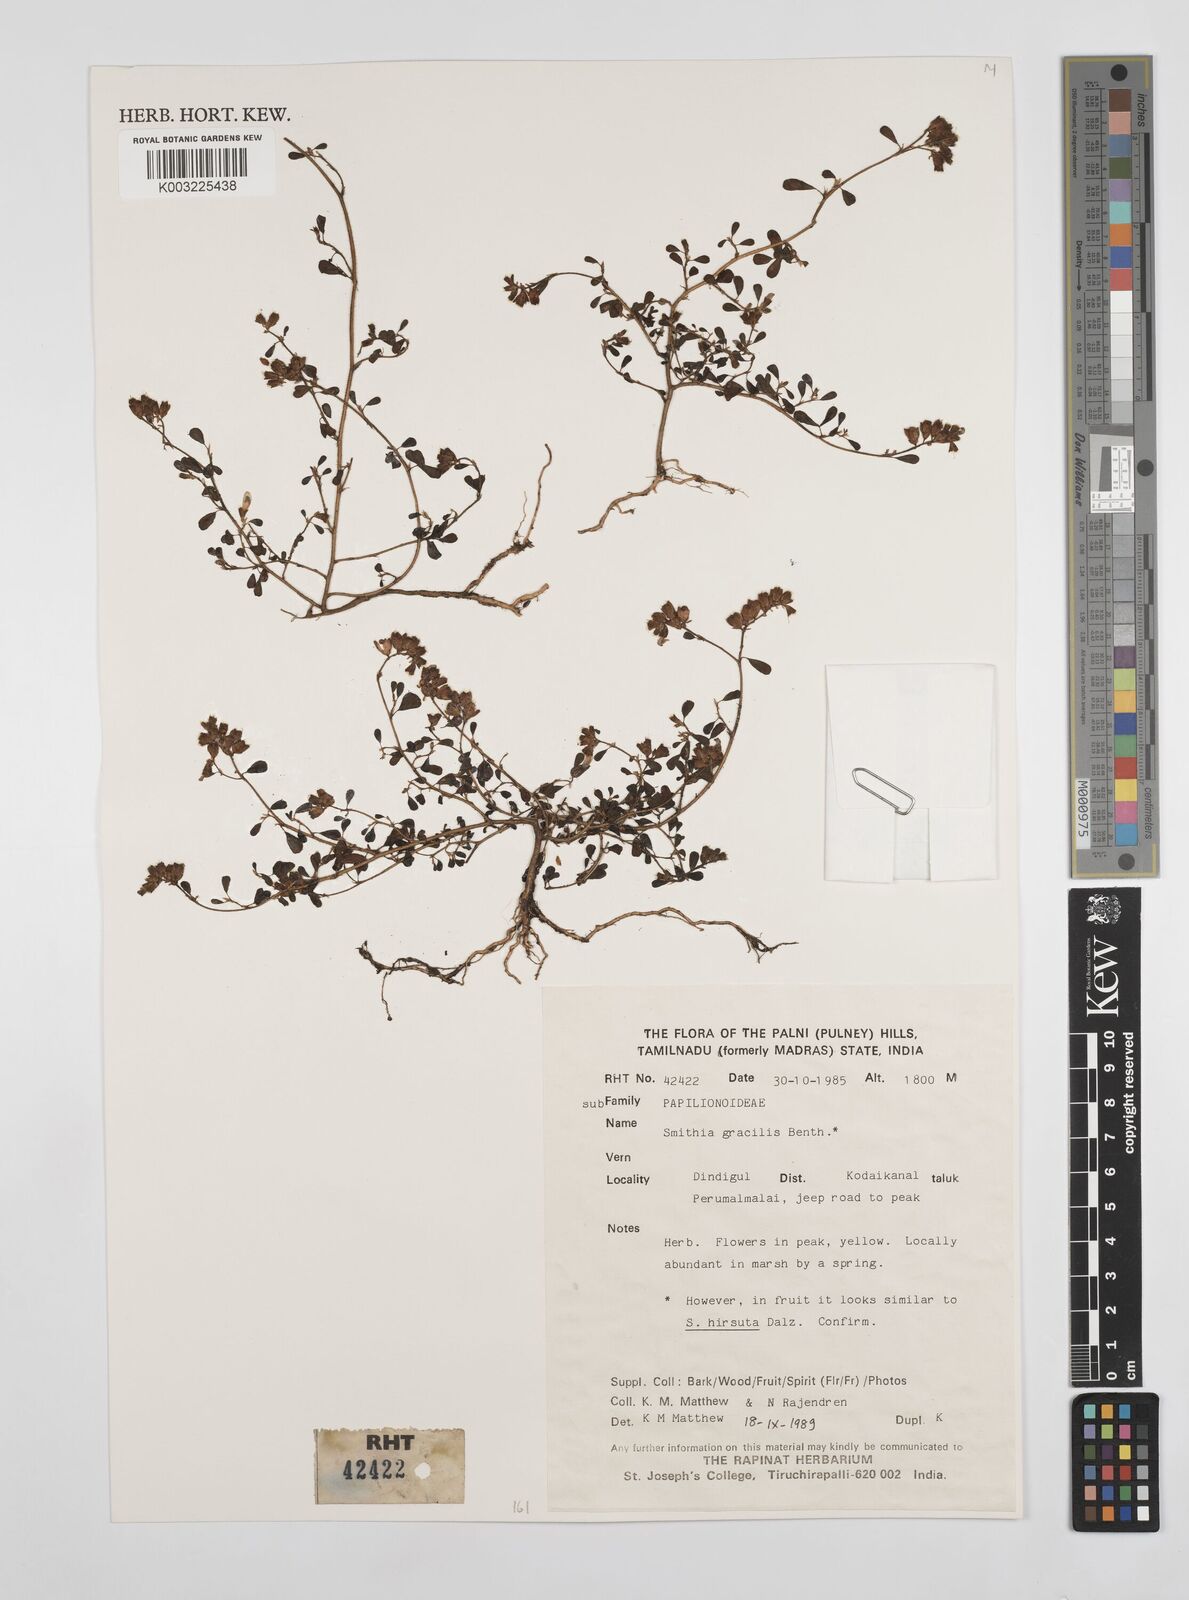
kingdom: Plantae
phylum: Tracheophyta
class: Magnoliopsida
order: Fabales
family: Fabaceae
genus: Smithia
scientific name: Smithia gracilis
